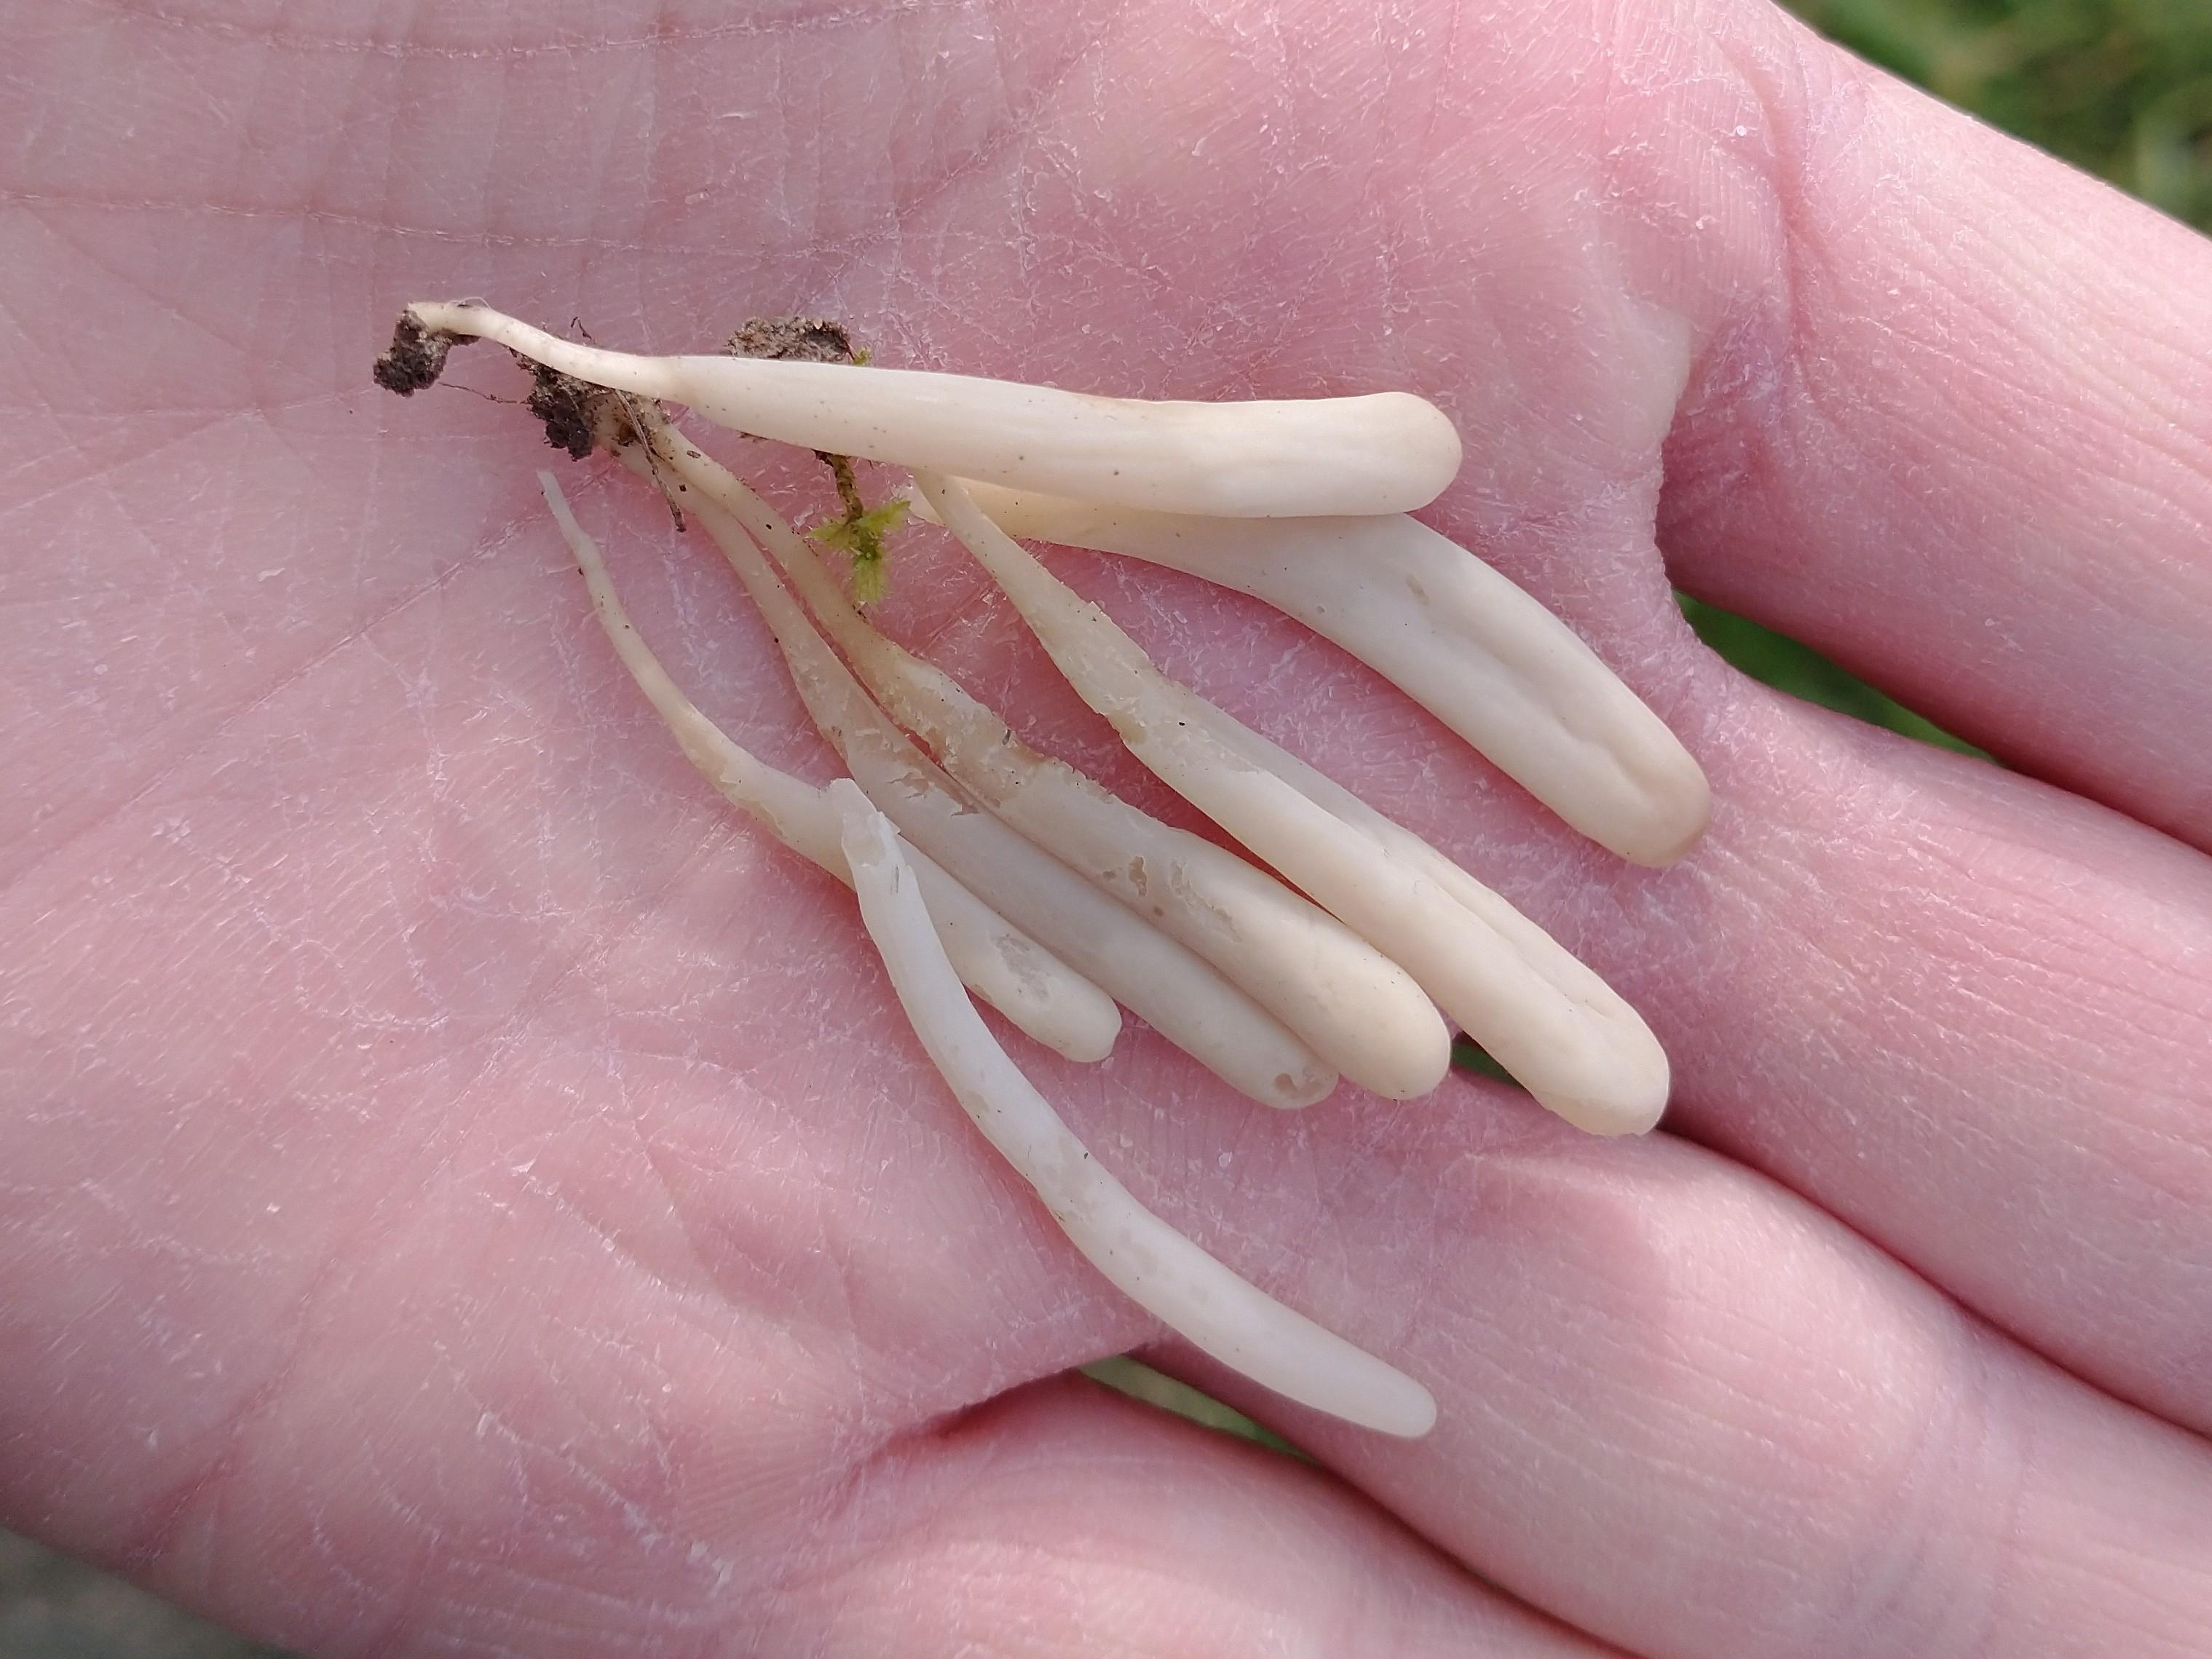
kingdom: Fungi
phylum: Basidiomycota
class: Agaricomycetes
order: Agaricales
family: Clavariaceae
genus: Clavaria
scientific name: Clavaria tenuipes
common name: isabellafarvet køllesvamp
